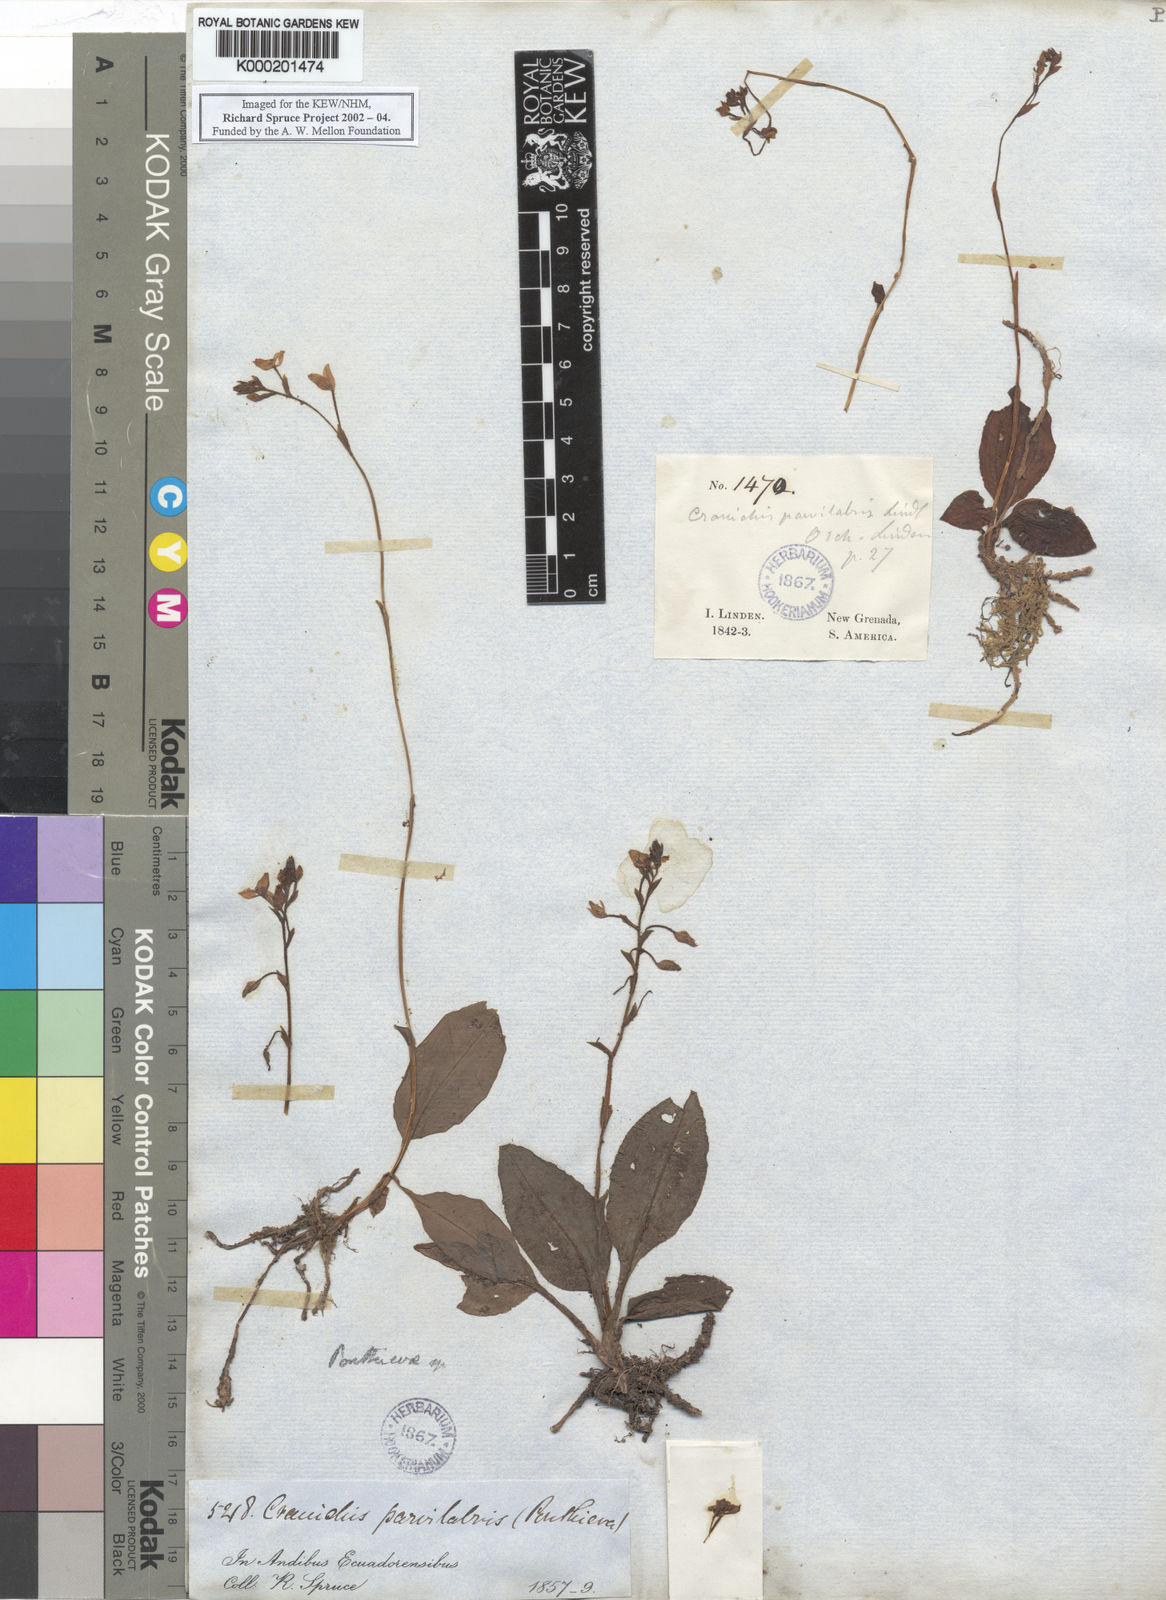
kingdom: Plantae
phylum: Tracheophyta
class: Liliopsida
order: Asparagales
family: Orchidaceae
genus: Ponthieva
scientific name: Ponthieva parvilabris
